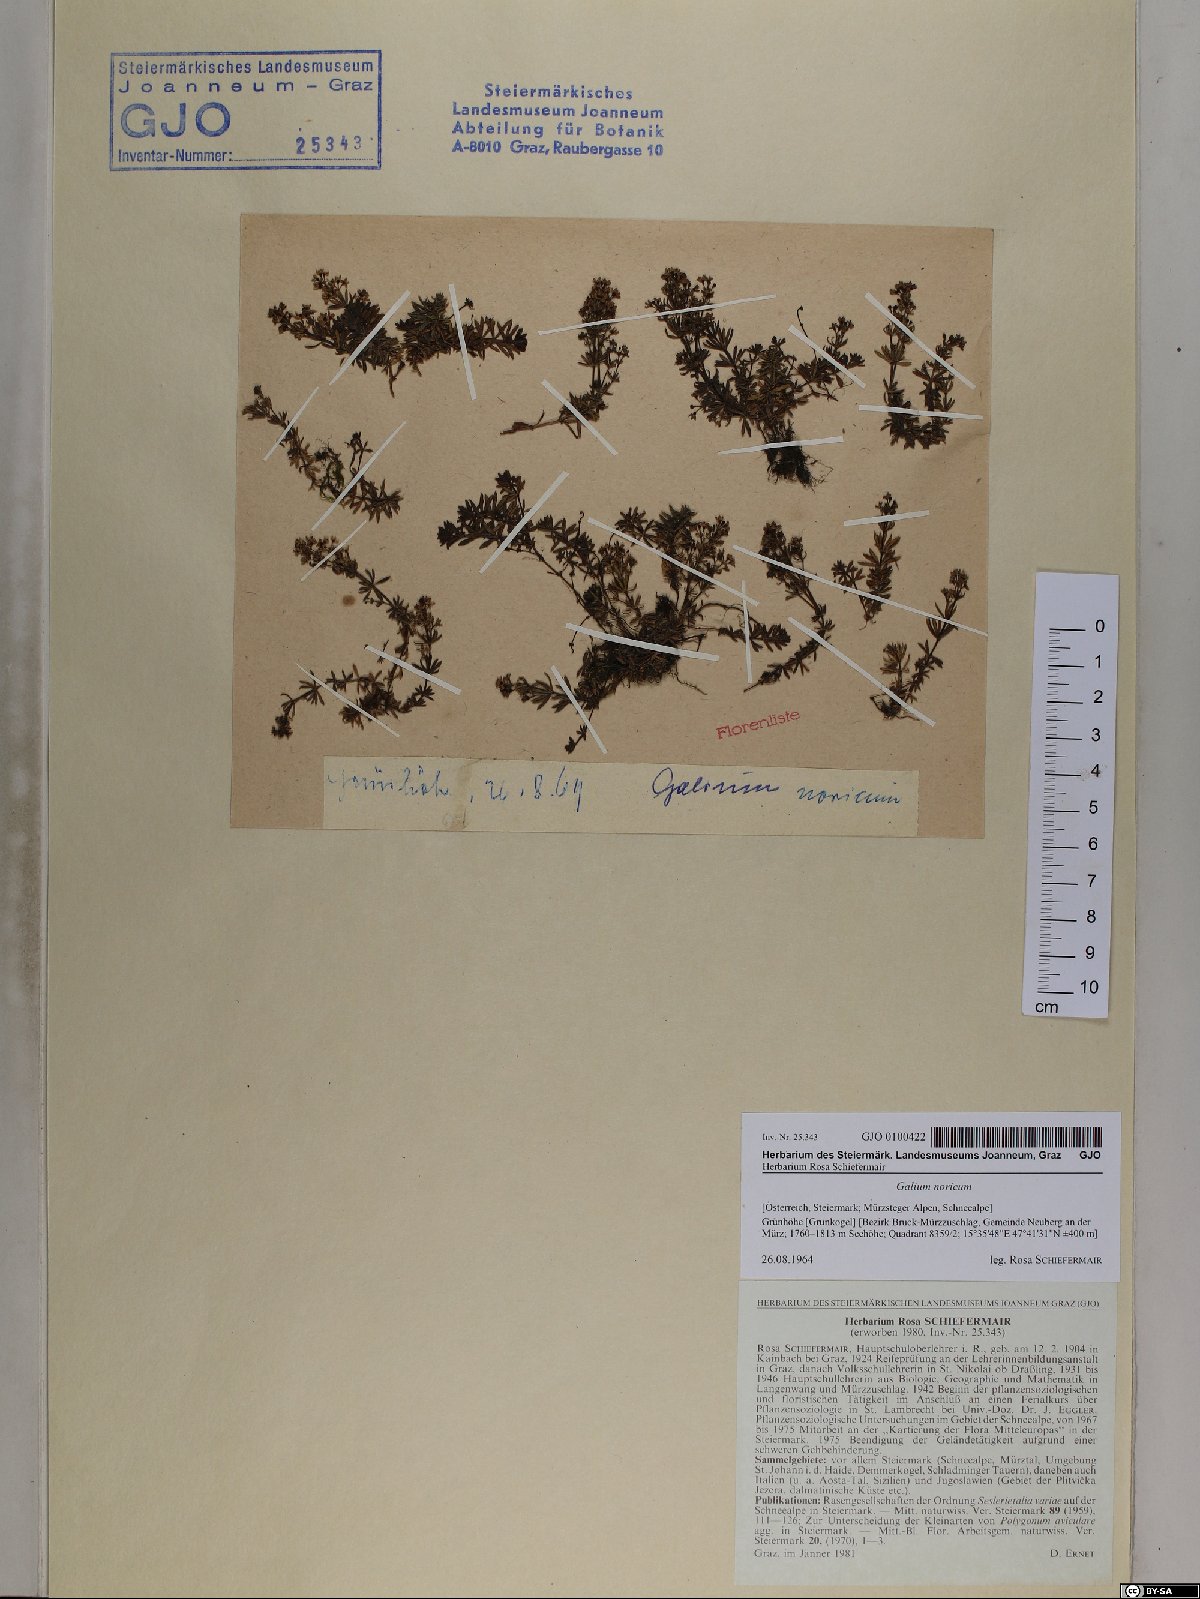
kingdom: Plantae
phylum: Tracheophyta
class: Magnoliopsida
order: Gentianales
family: Rubiaceae
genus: Galium
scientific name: Galium noricum
